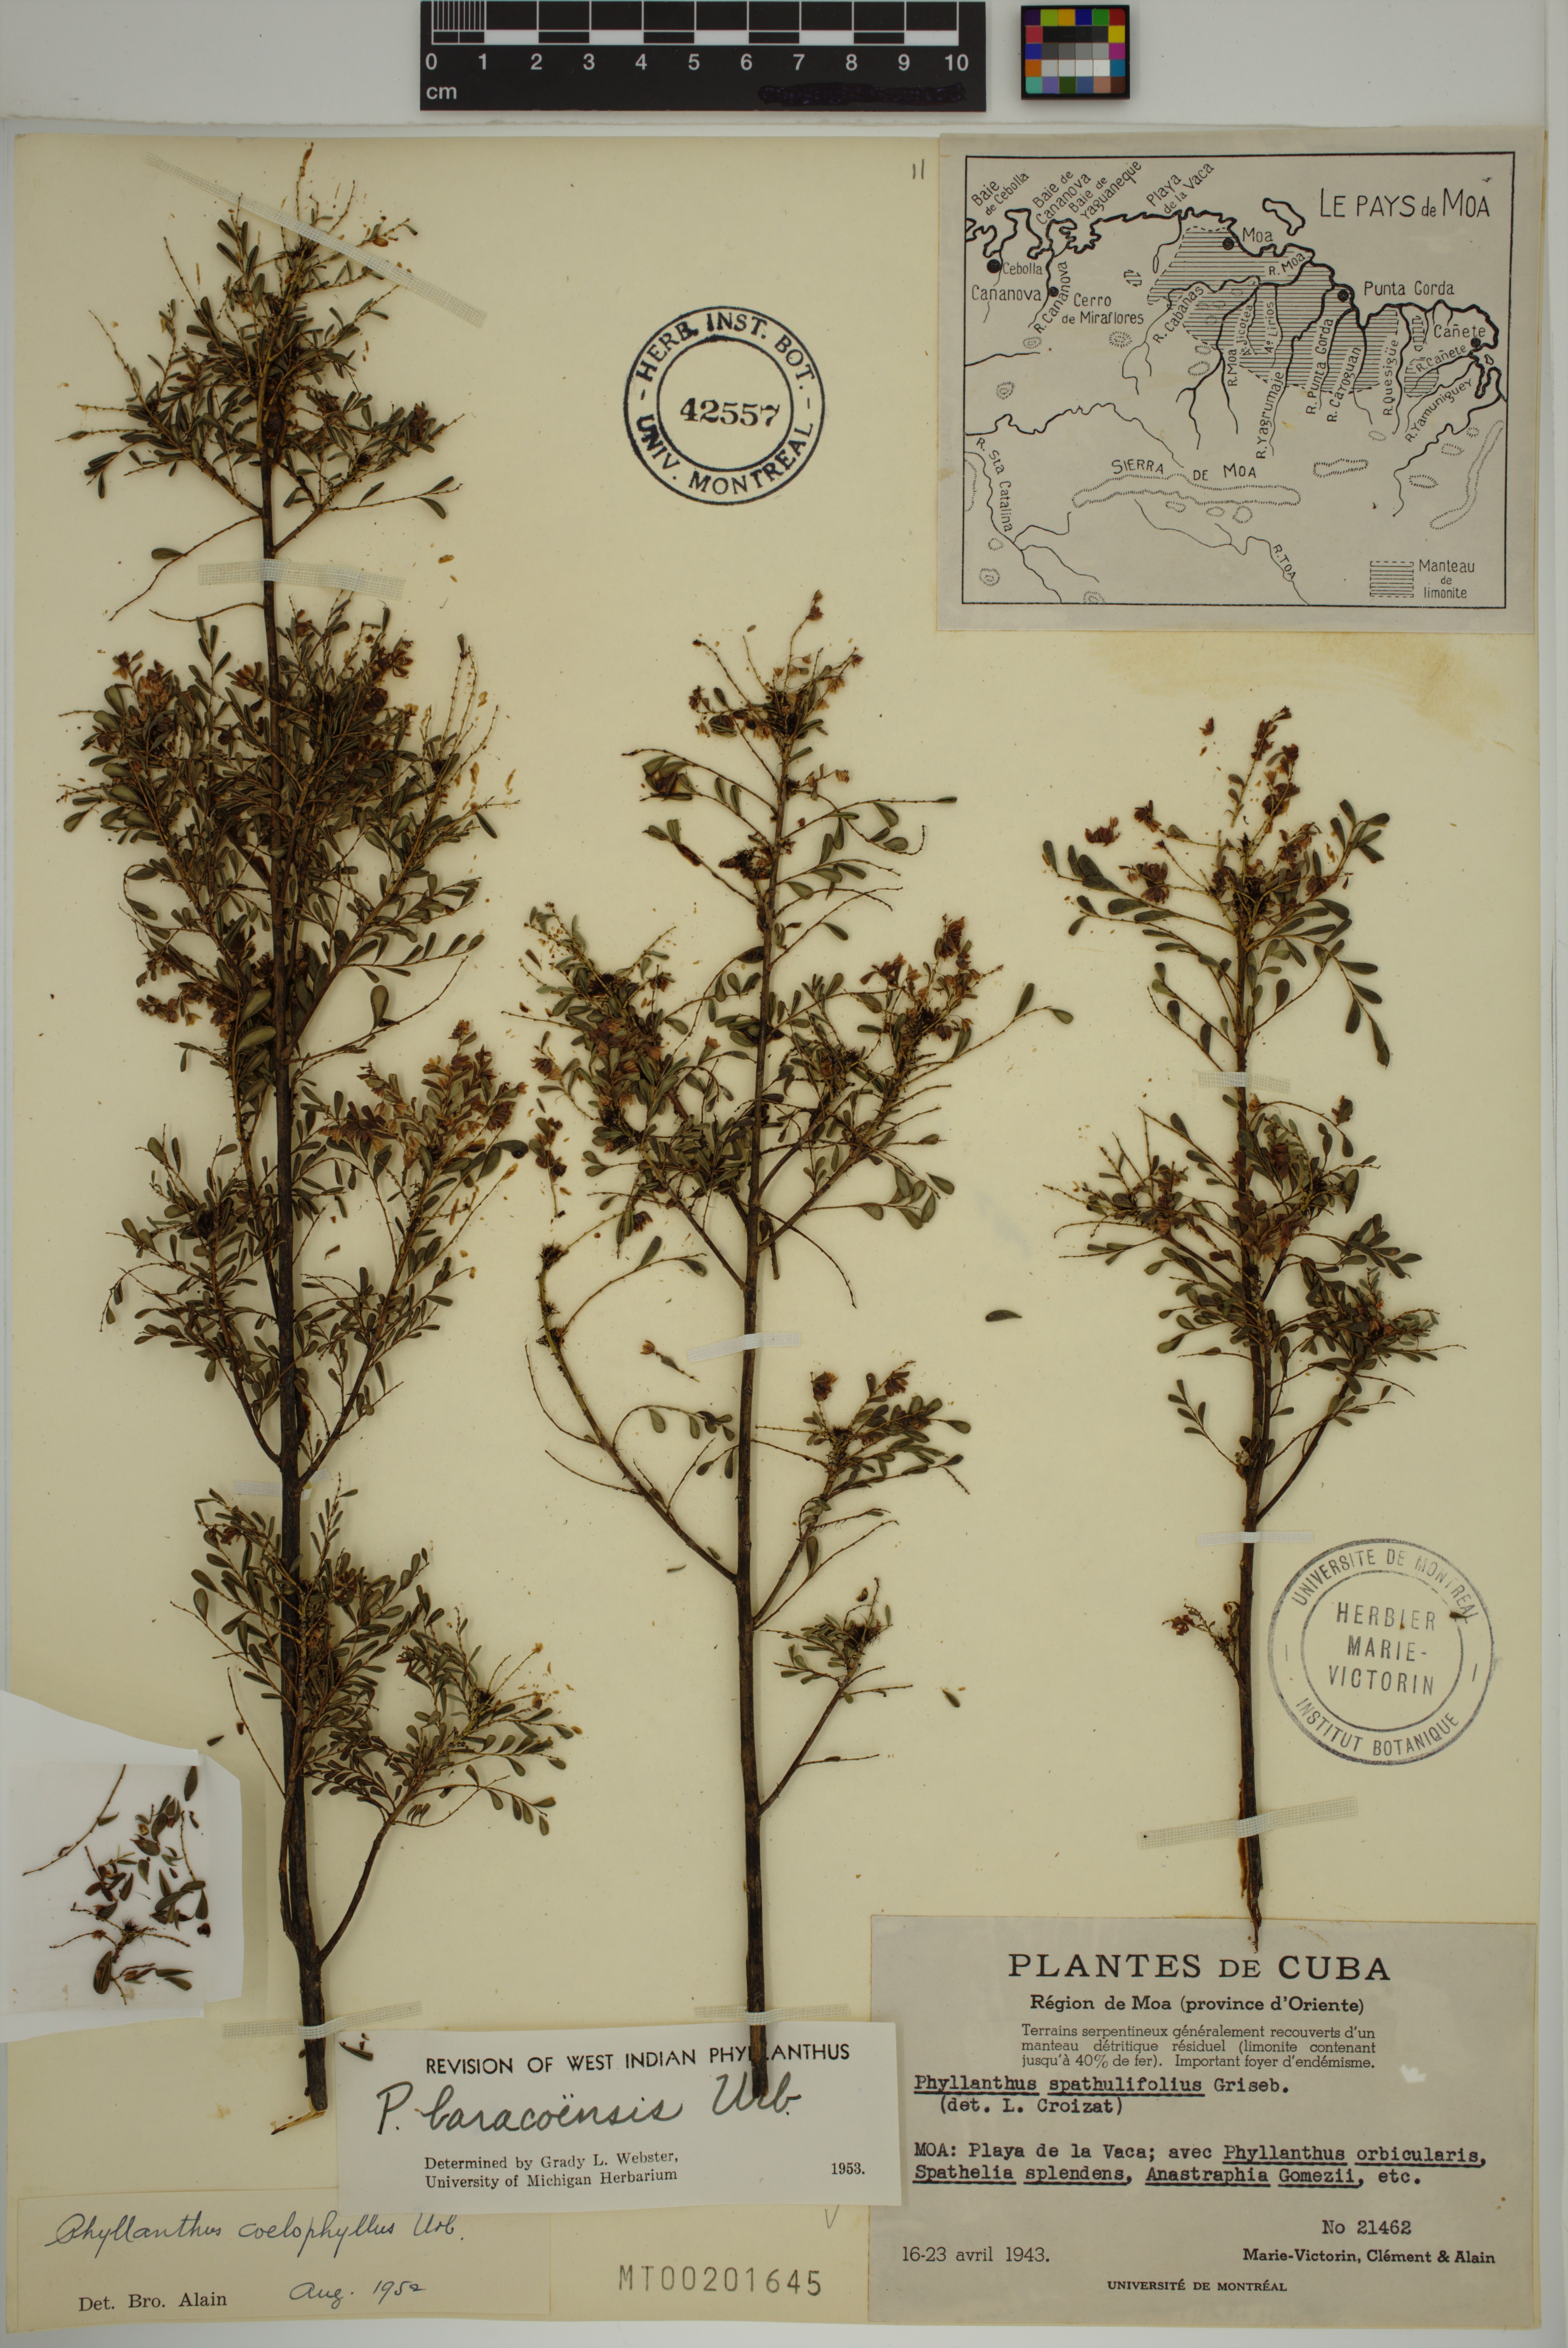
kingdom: Plantae
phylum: Tracheophyta
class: Magnoliopsida
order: Malpighiales
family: Phyllanthaceae
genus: Phyllanthus
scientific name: Phyllanthus chamaecristoides
